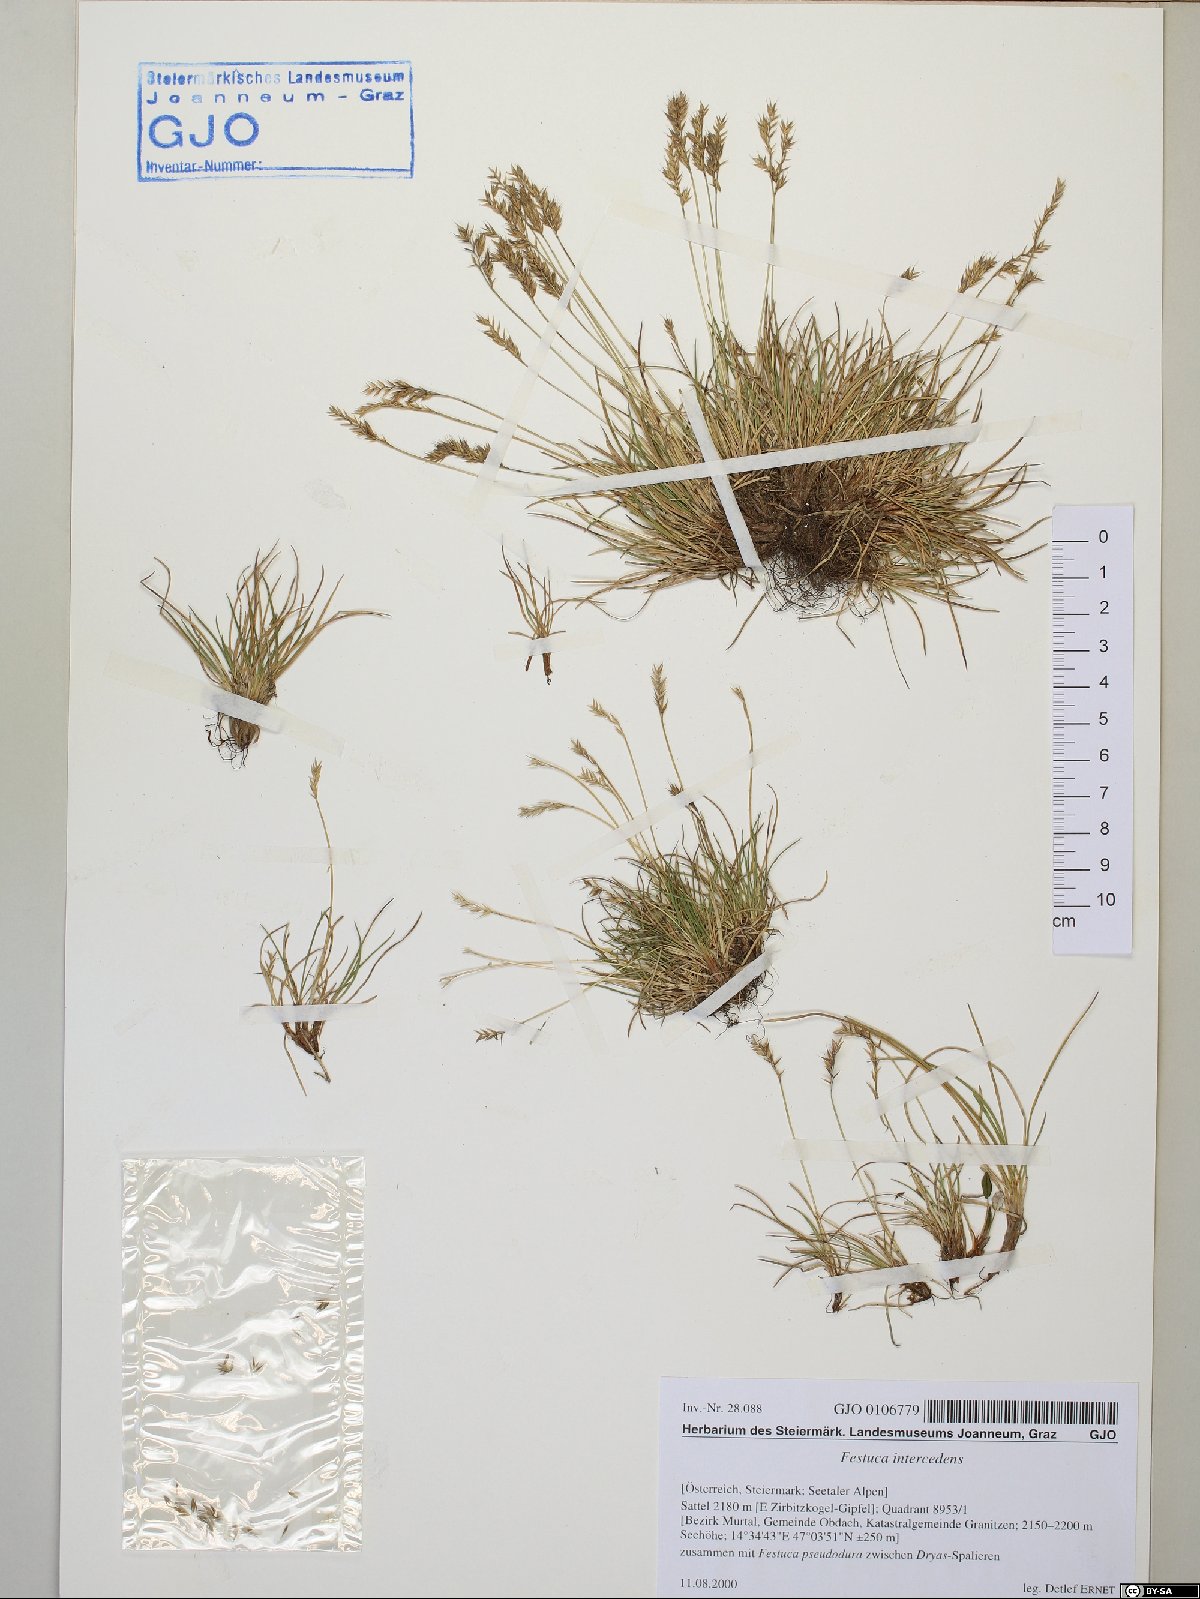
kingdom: Plantae
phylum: Tracheophyta
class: Liliopsida
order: Poales
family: Poaceae
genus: Festuca
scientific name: Festuca intercedens
